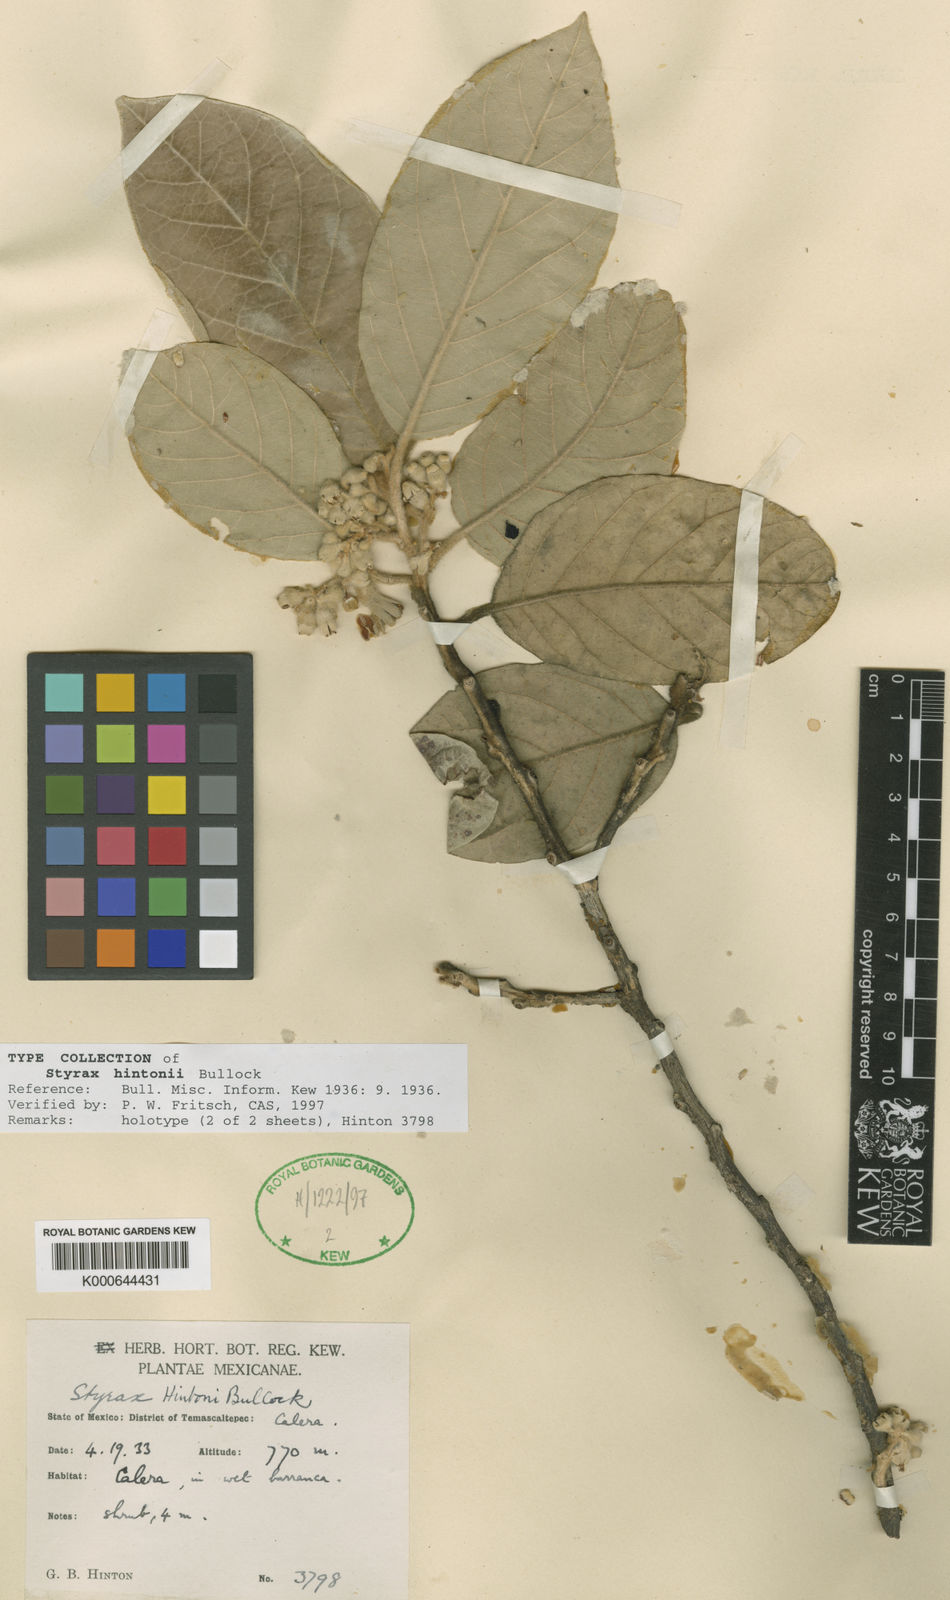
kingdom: Plantae
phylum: Tracheophyta
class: Magnoliopsida
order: Ericales
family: Styracaceae
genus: Styrax
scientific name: Styrax argenteus
